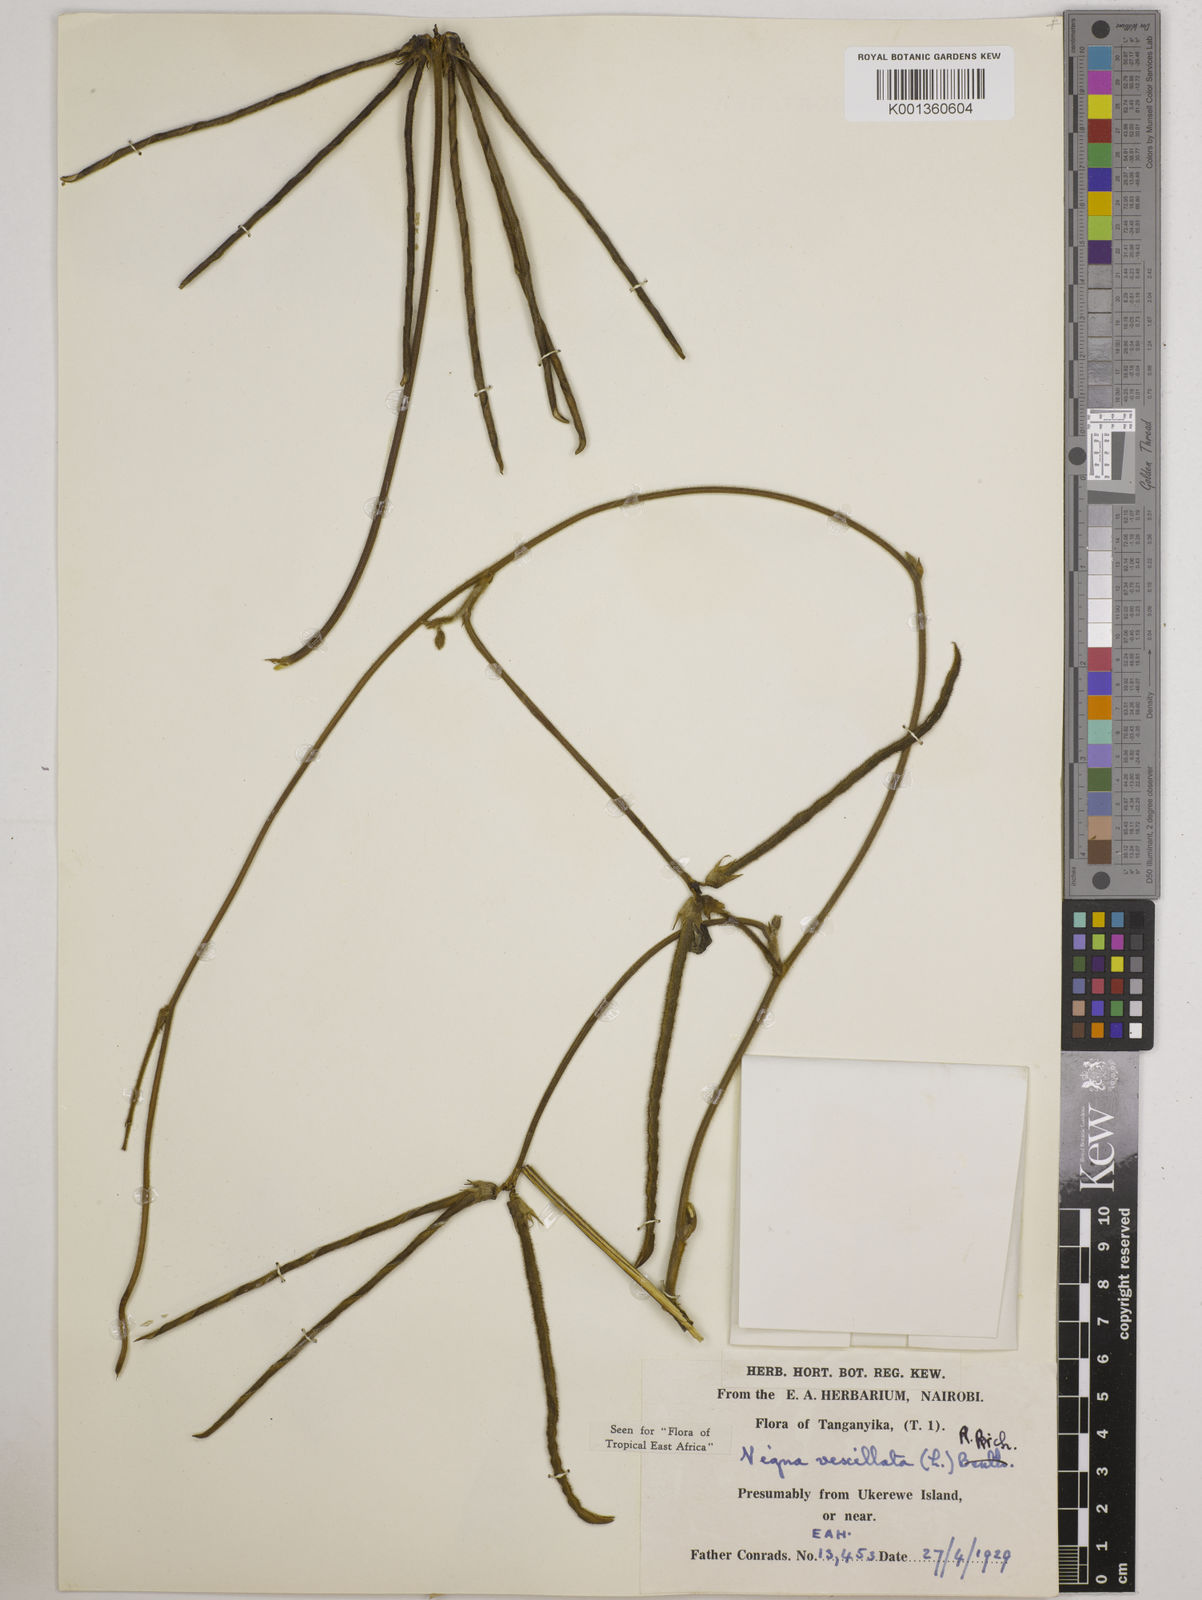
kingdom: Plantae
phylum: Tracheophyta
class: Magnoliopsida
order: Fabales
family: Fabaceae
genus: Vigna
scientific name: Vigna vexillata
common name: Zombi pea
